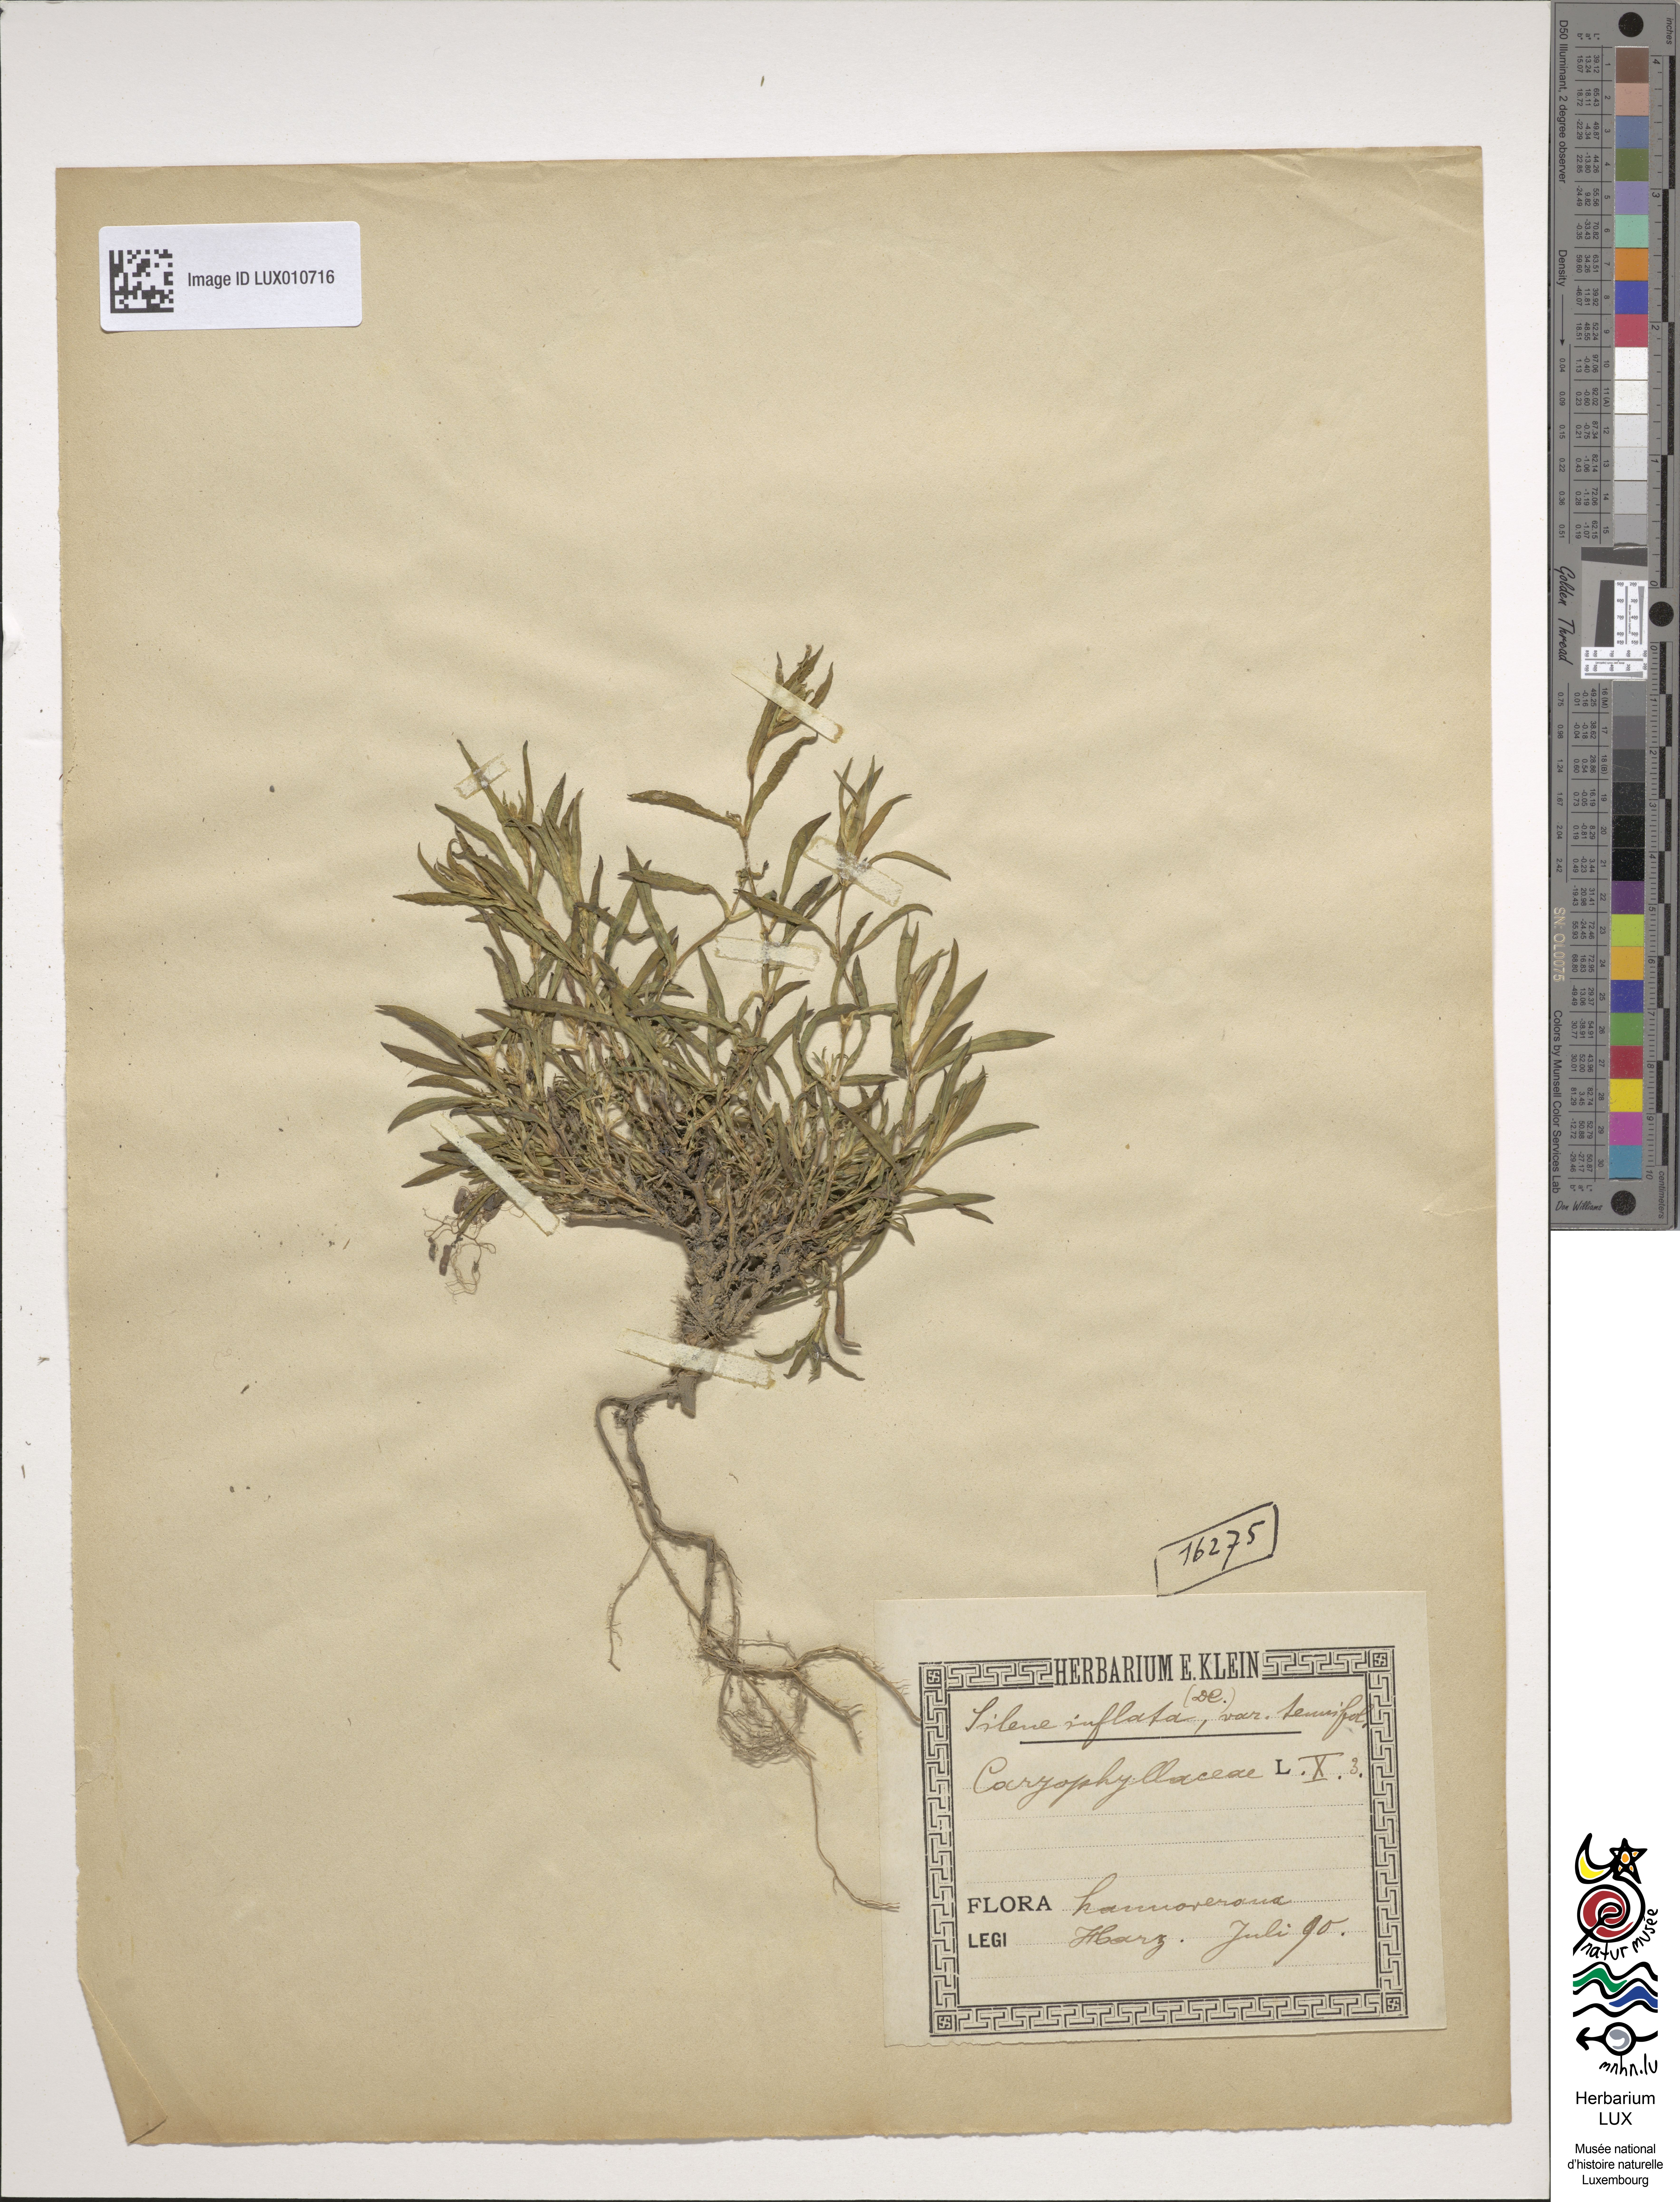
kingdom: Plantae
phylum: Tracheophyta
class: Magnoliopsida
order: Caryophyllales
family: Caryophyllaceae
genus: Silene
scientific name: Silene vulgaris
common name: Bladder campion
